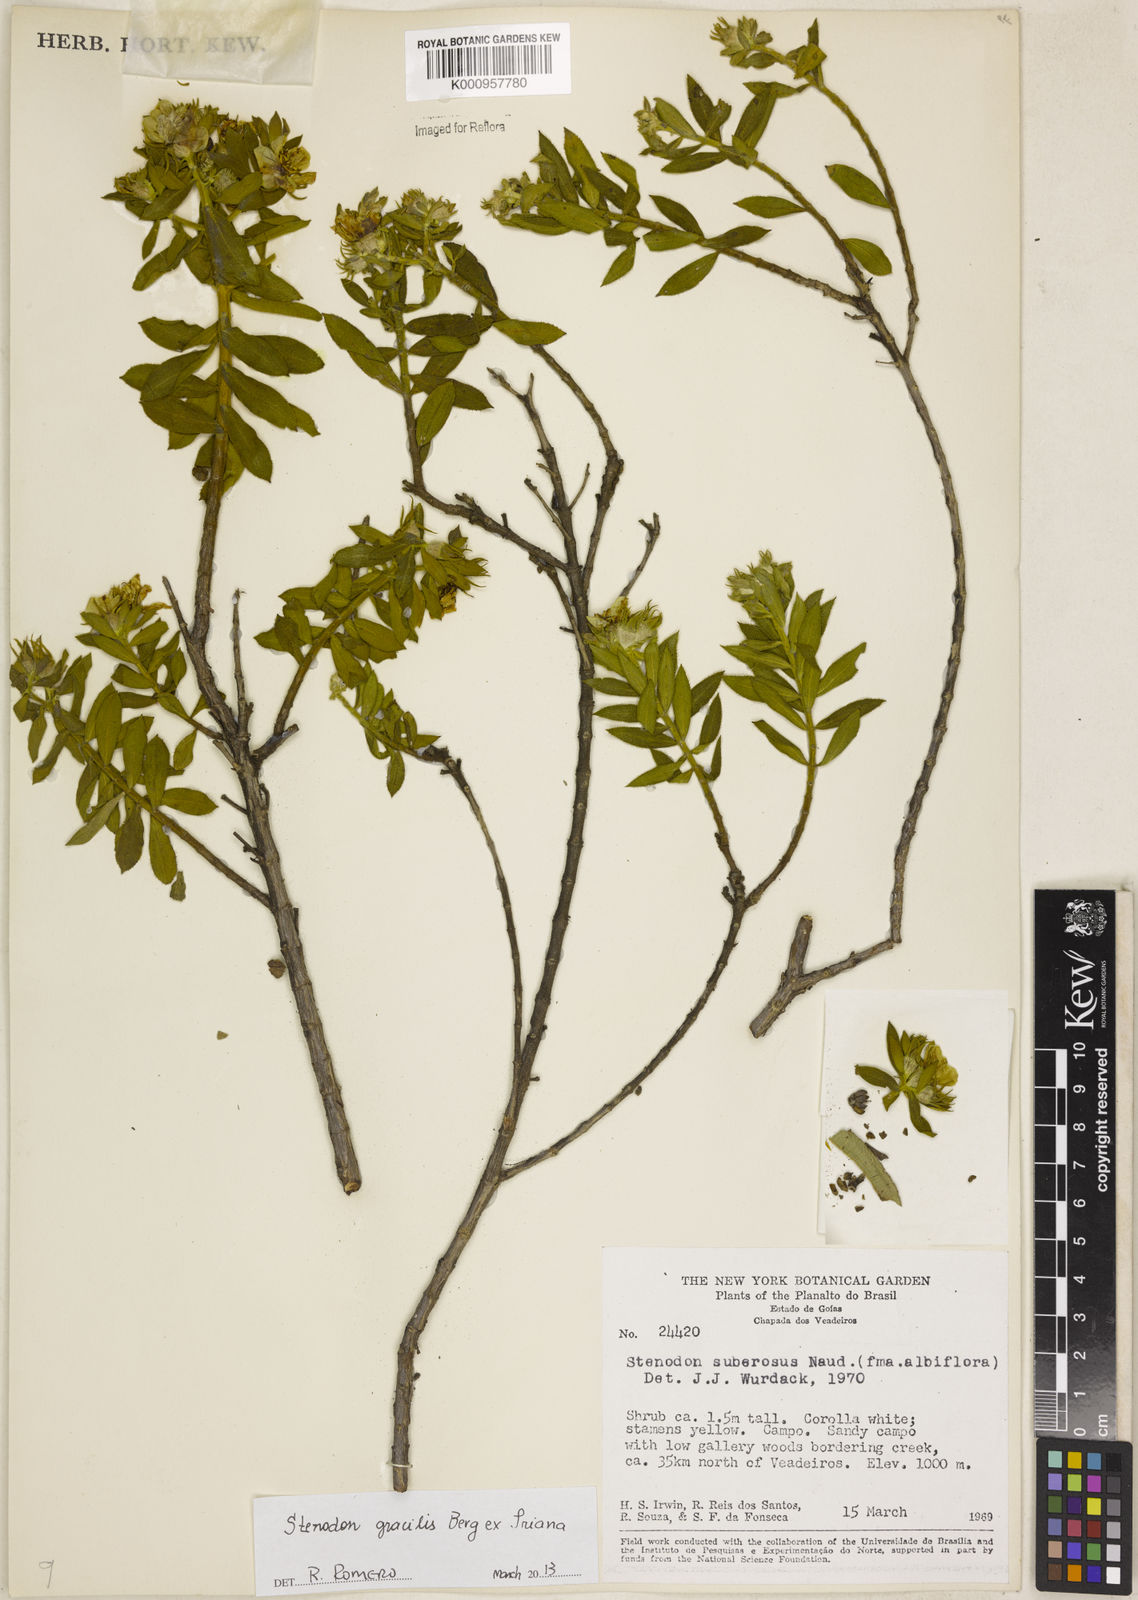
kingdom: Plantae
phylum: Tracheophyta
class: Magnoliopsida
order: Myrtales
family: Melastomataceae
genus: Microlicia
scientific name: Microlicia neogracilis
